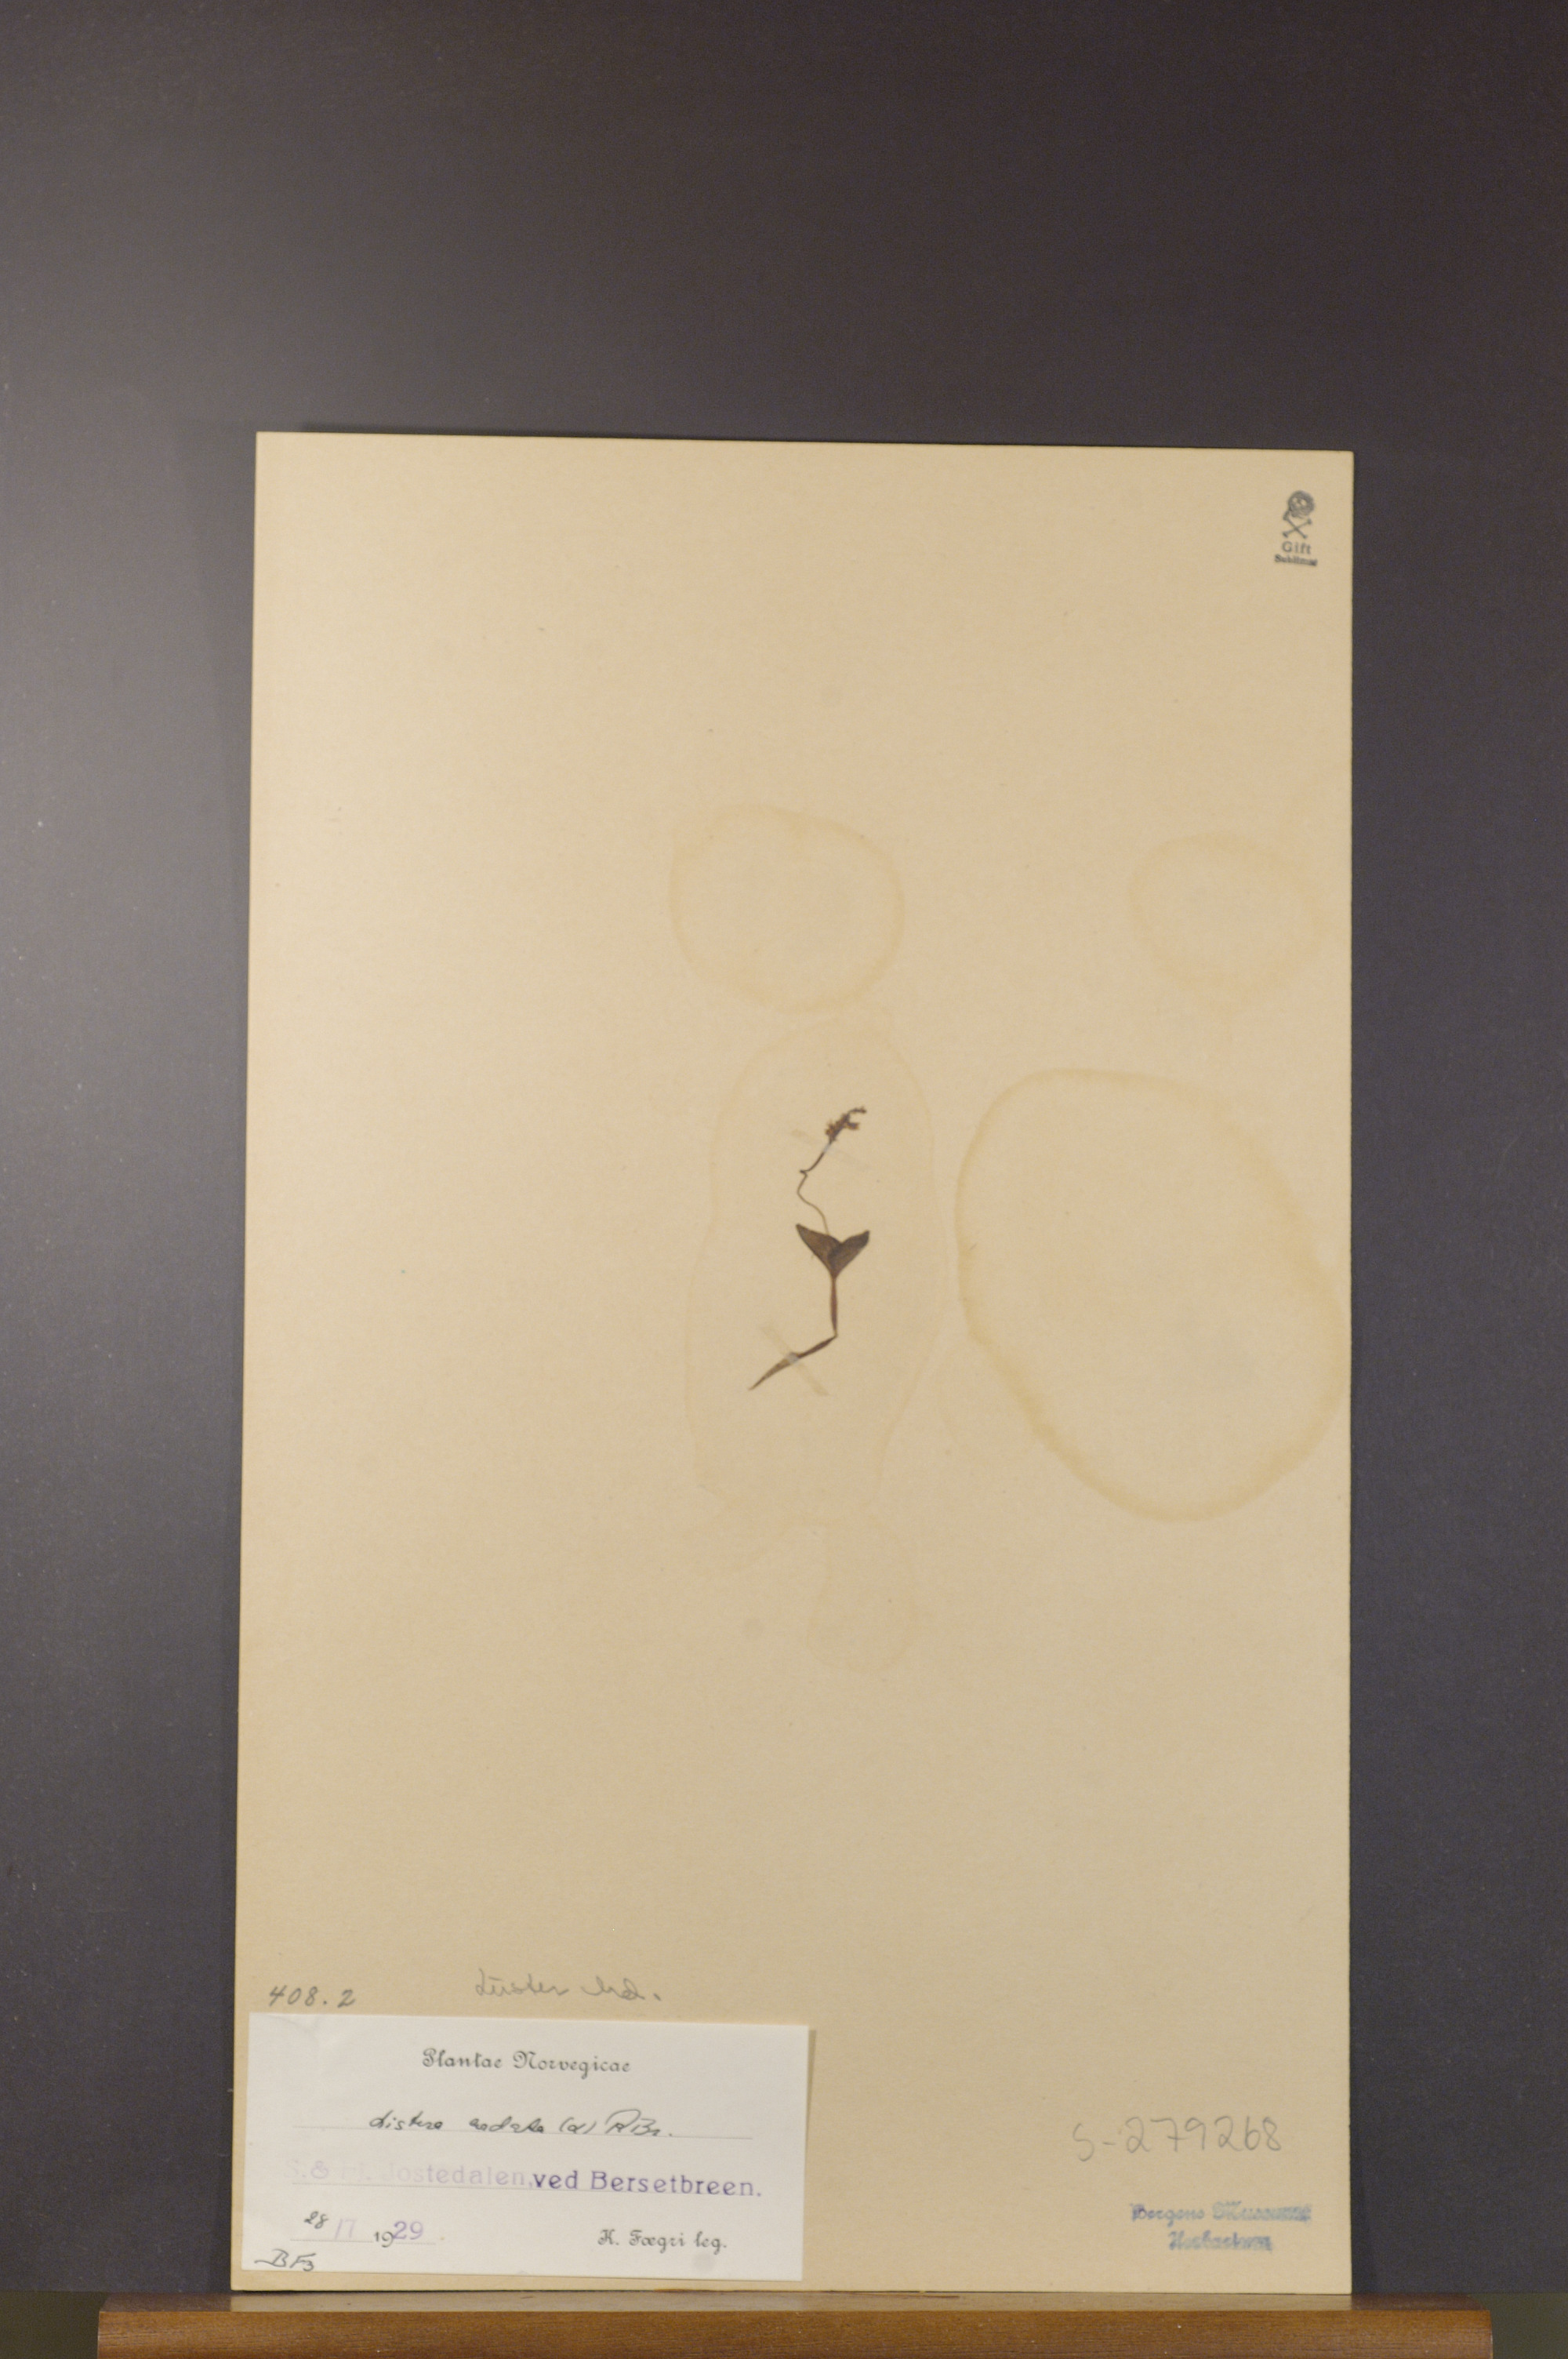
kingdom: Plantae
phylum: Tracheophyta
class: Liliopsida
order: Asparagales
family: Orchidaceae
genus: Neottia
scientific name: Neottia cordata
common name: Lesser twayblade
